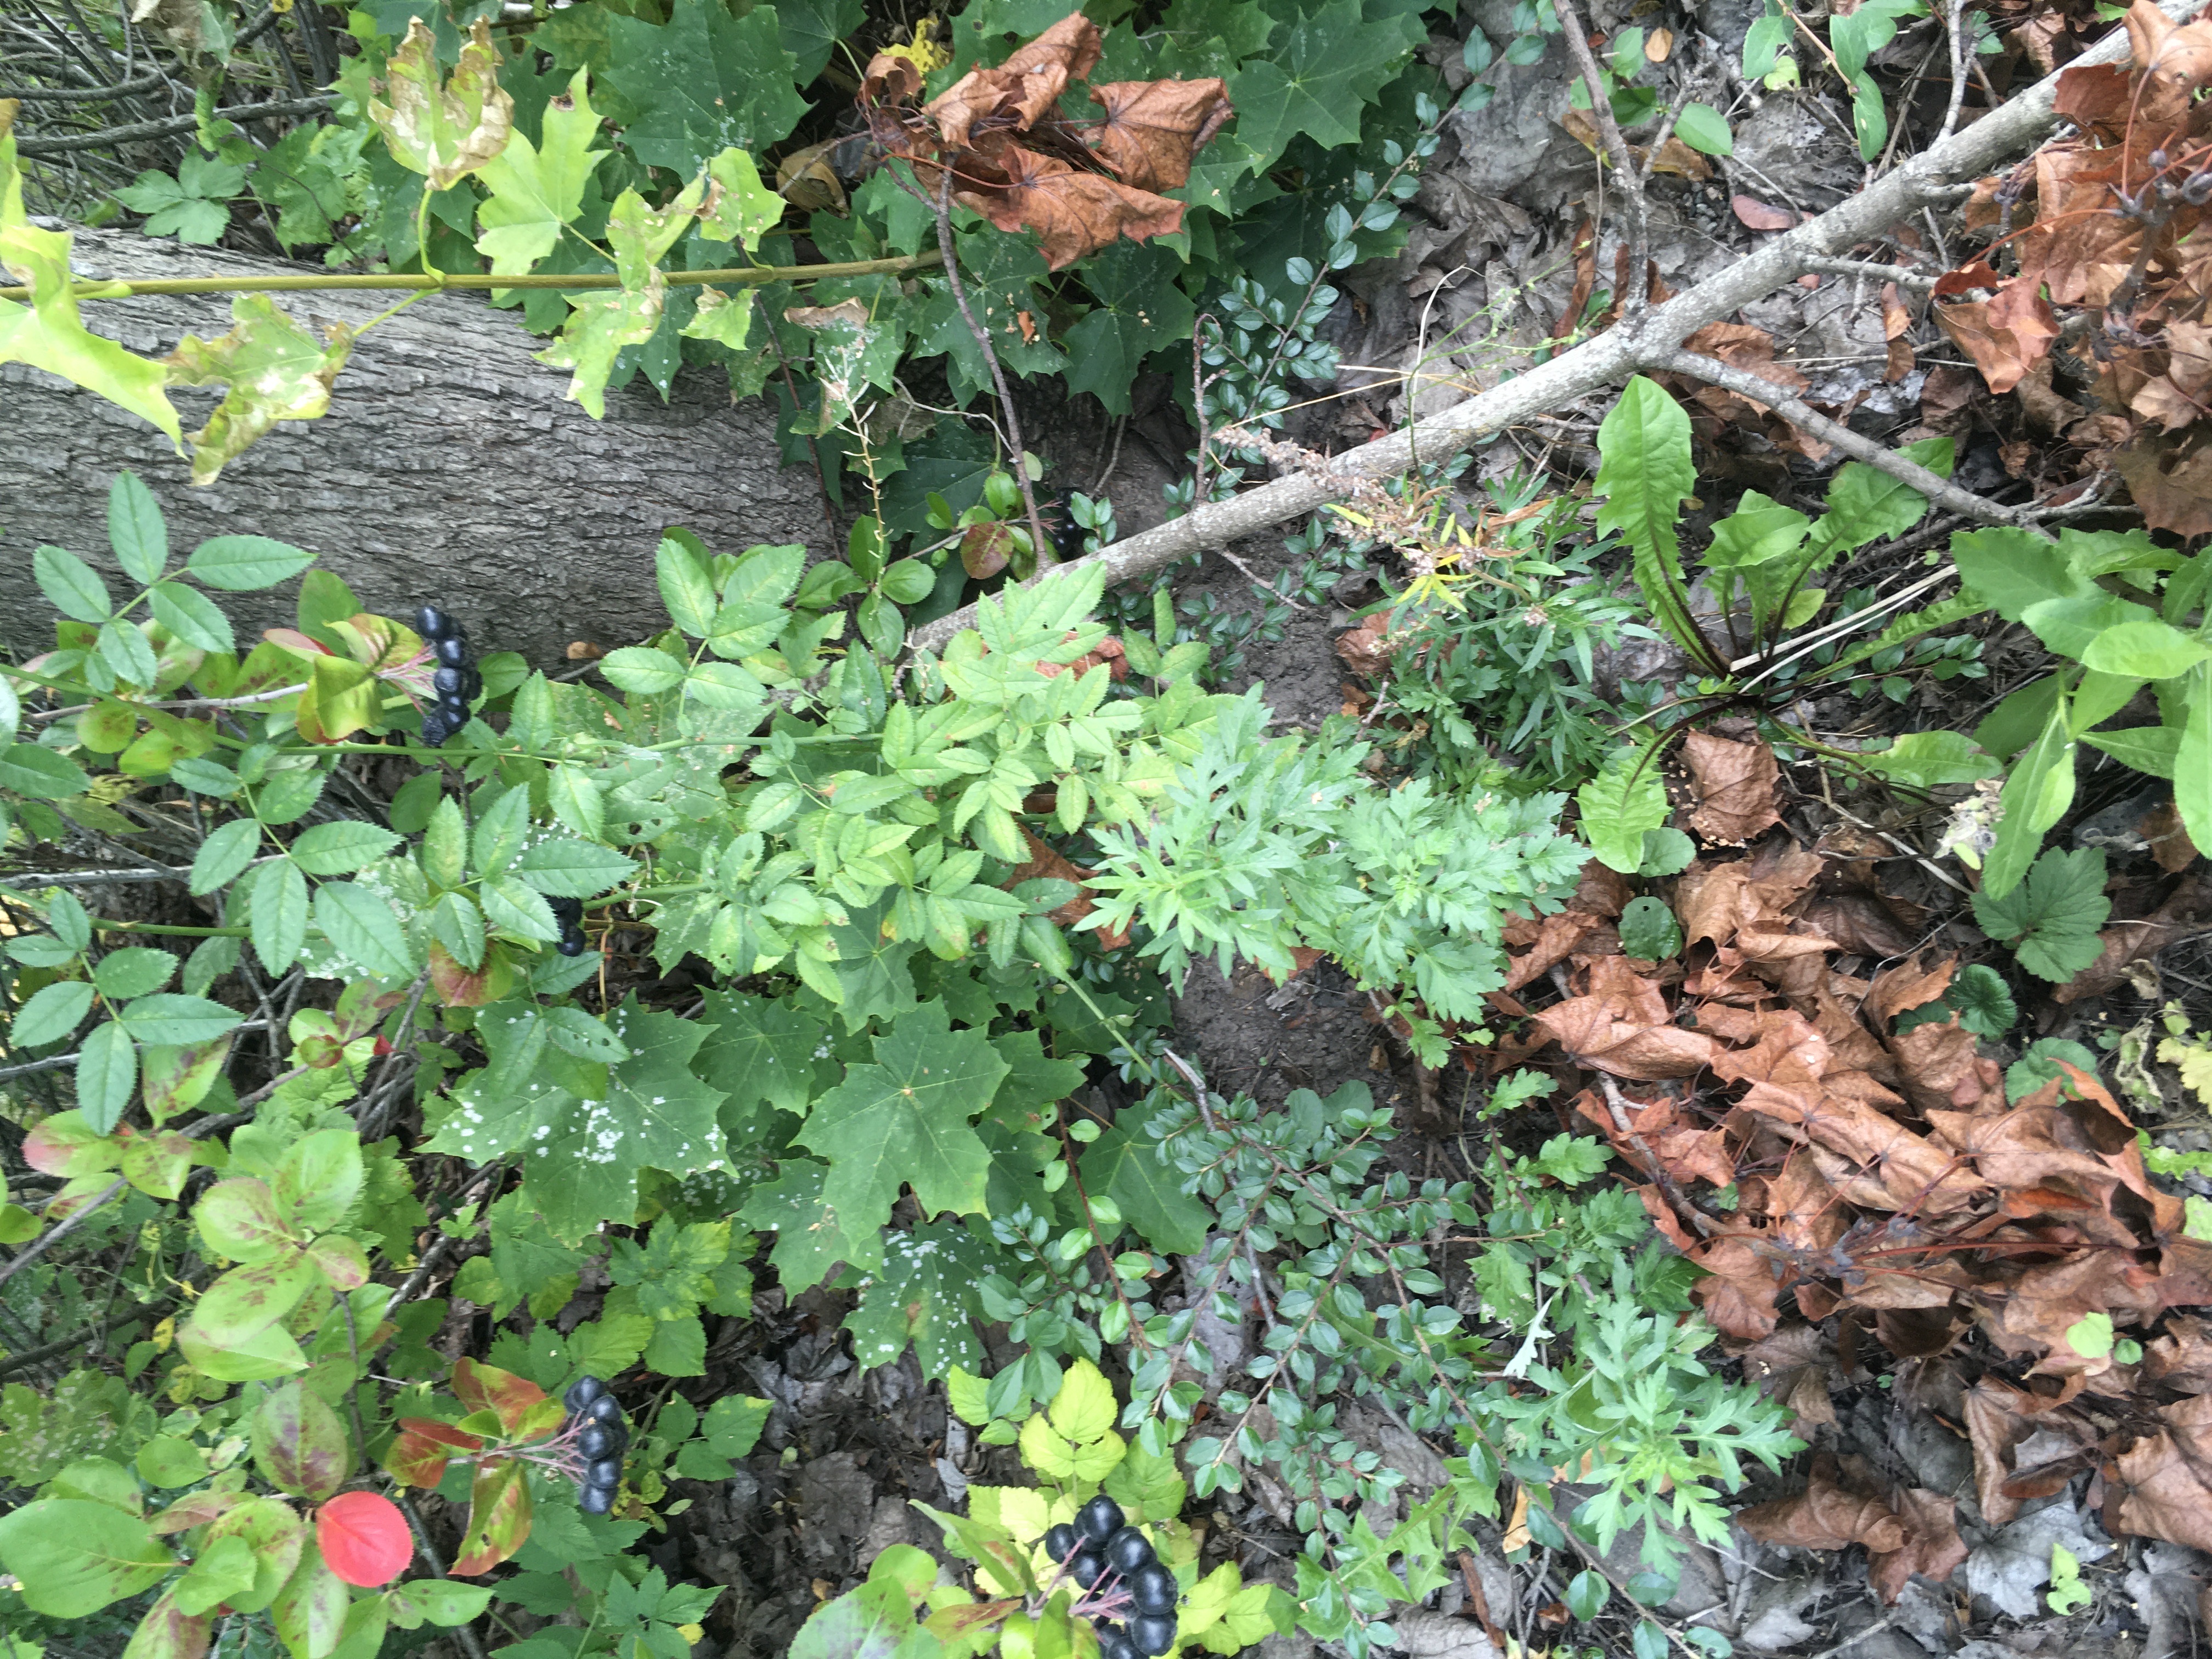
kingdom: Plantae
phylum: Tracheophyta
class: Magnoliopsida
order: Rosales
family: Rosaceae
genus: Cotoneaster
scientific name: Cotoneaster divaricatus
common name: sprikemispel
